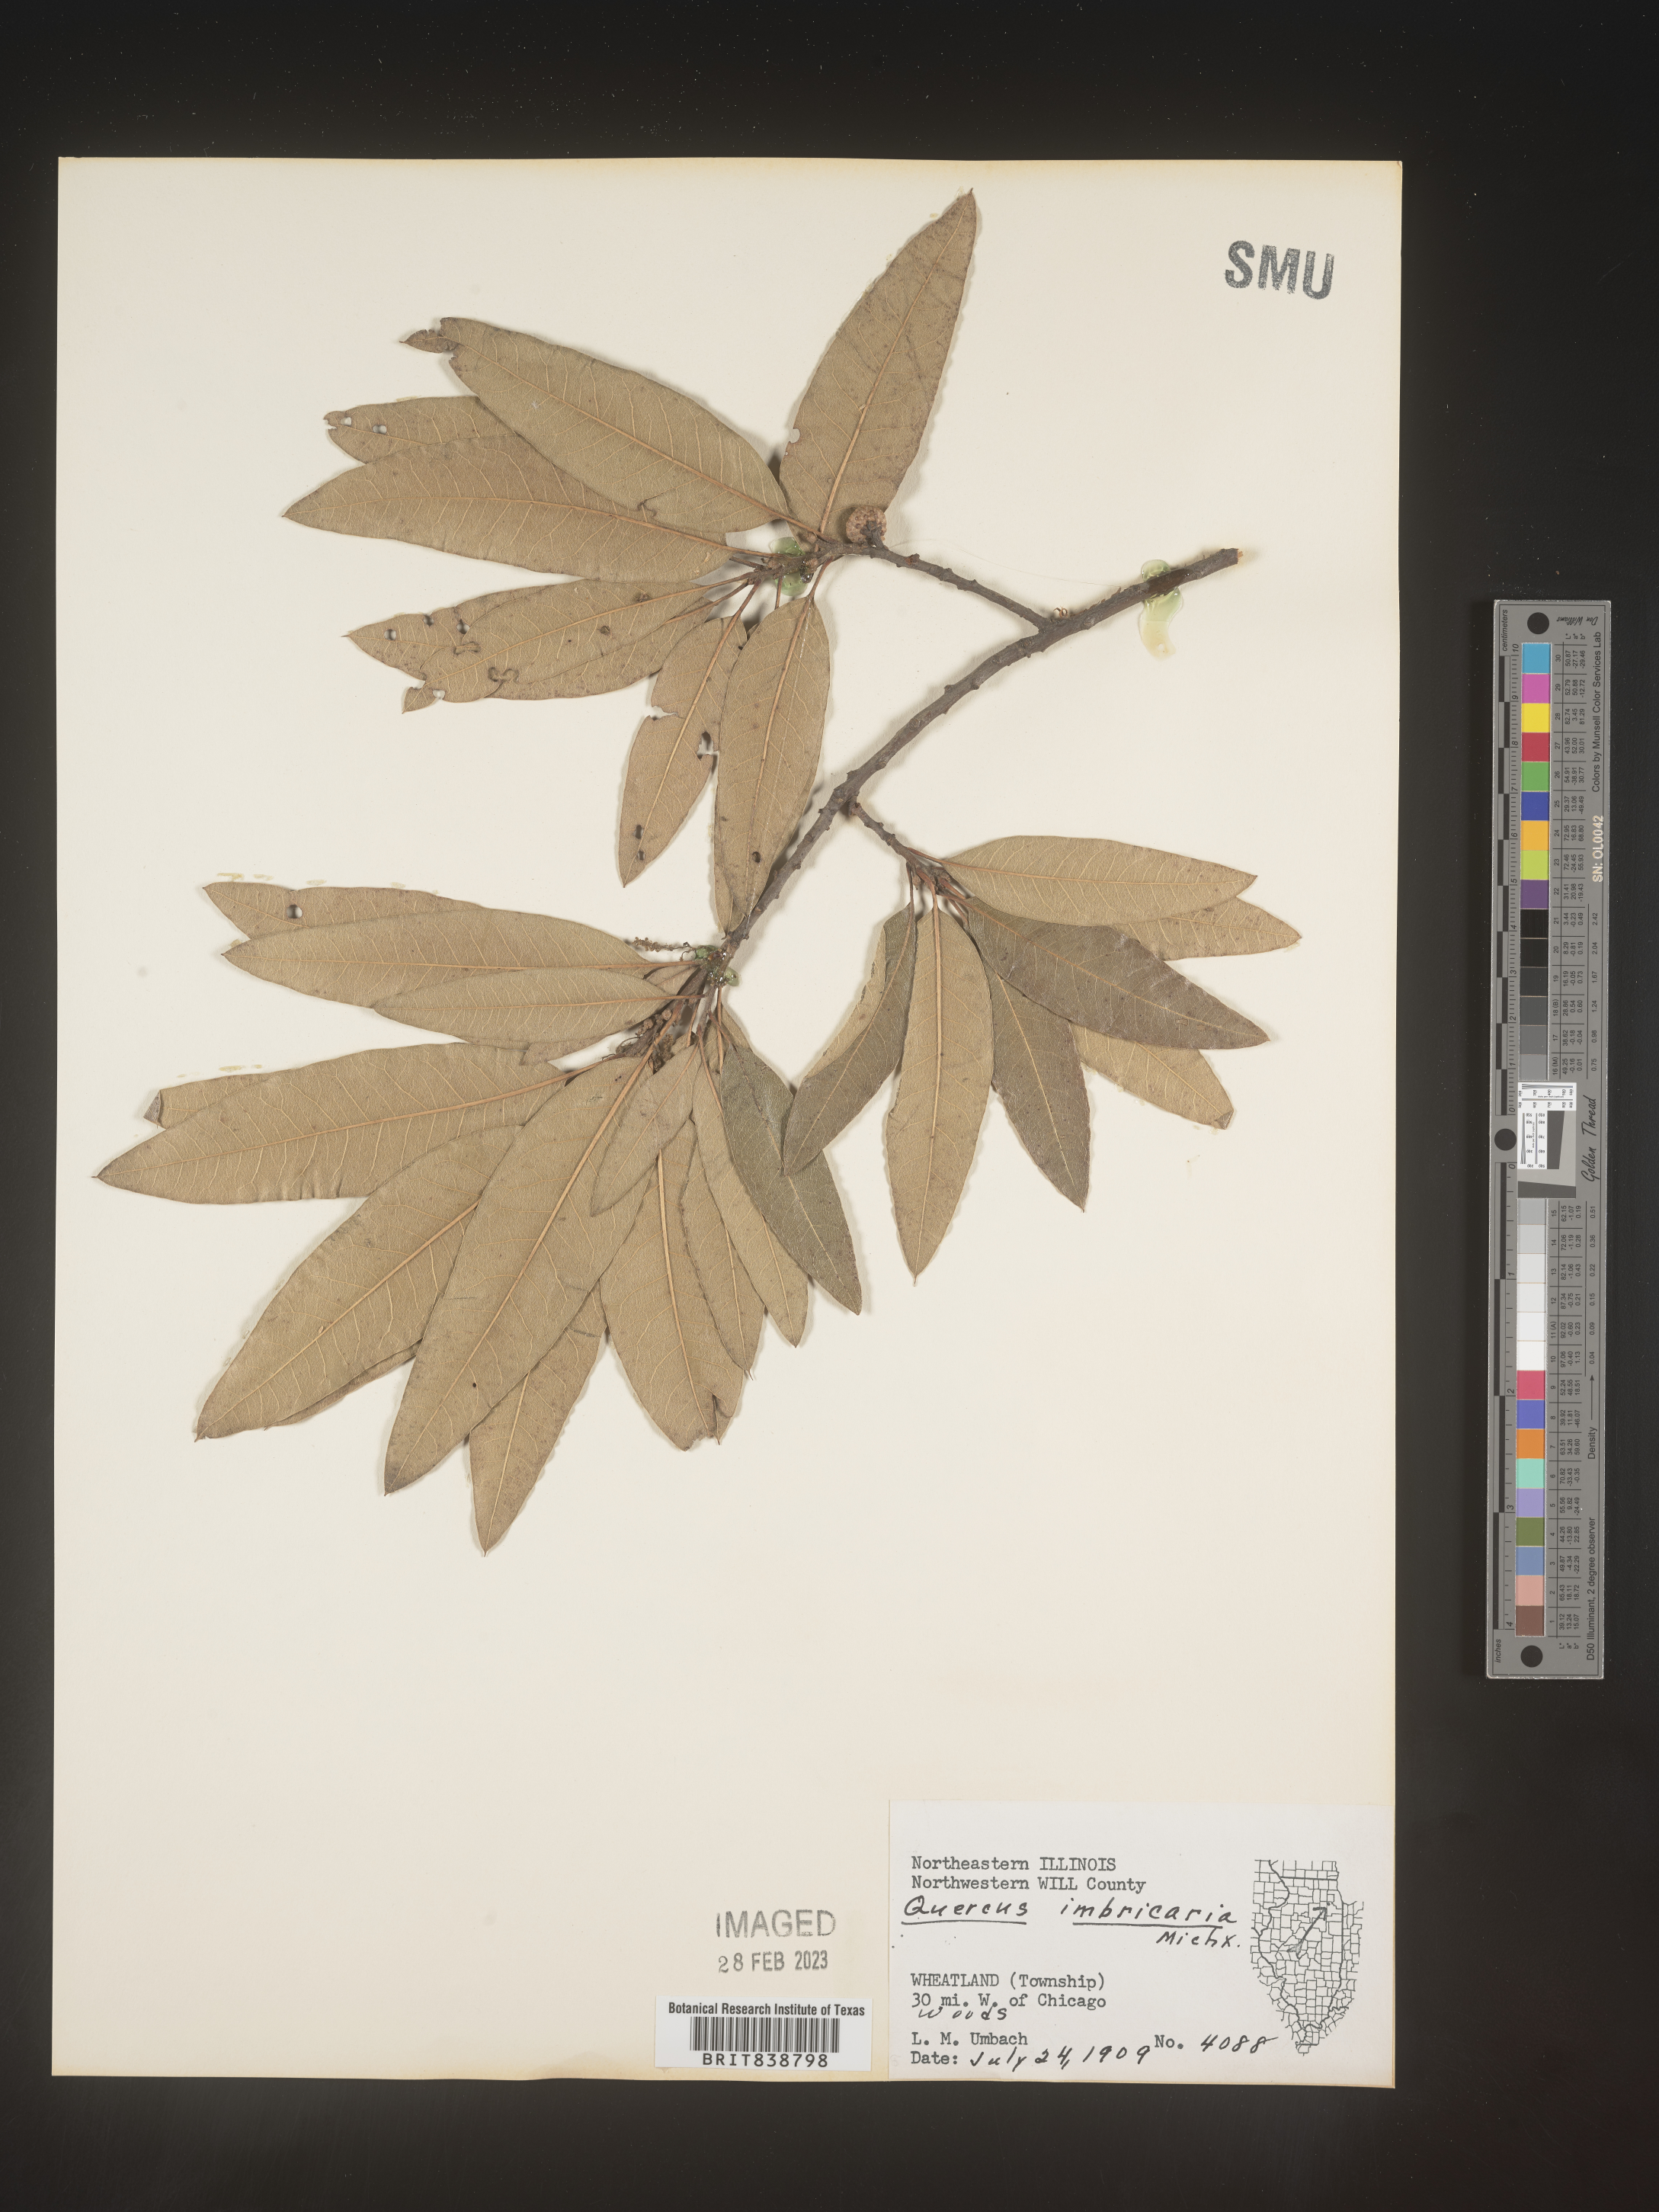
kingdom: Plantae
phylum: Tracheophyta
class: Magnoliopsida
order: Fagales
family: Fagaceae
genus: Quercus
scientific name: Quercus imbricaria
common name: Shingle oak
